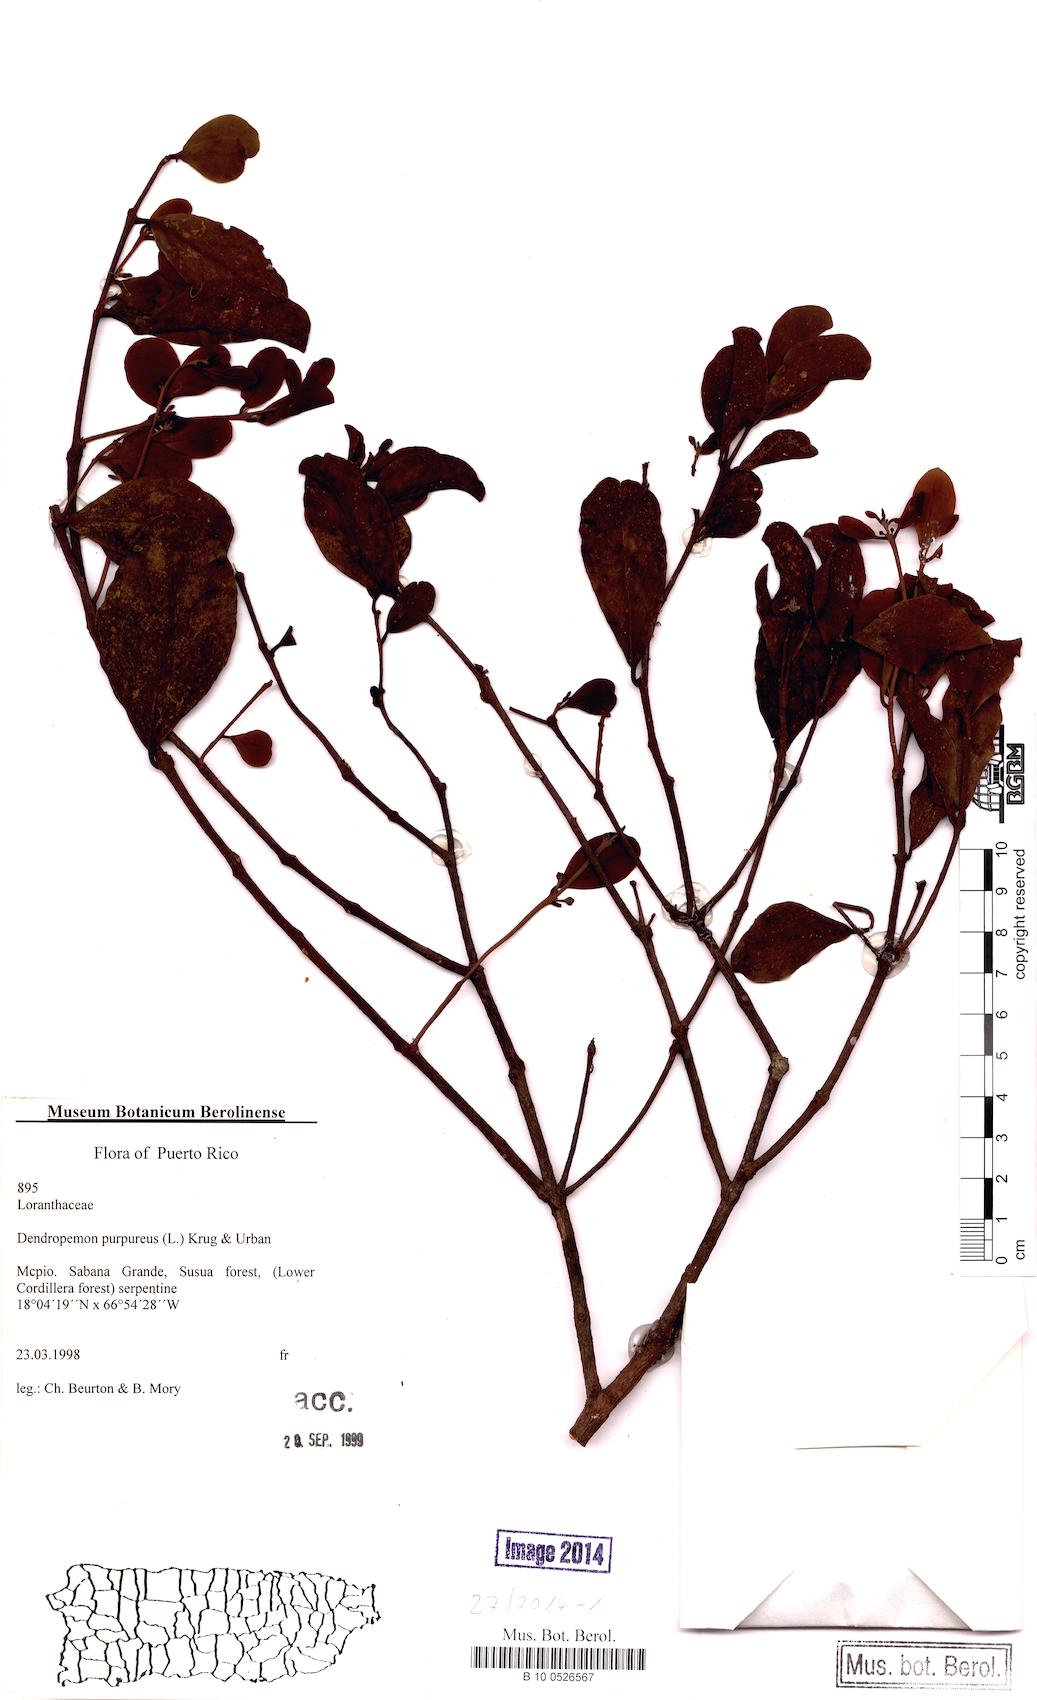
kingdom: Plantae
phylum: Tracheophyta
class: Magnoliopsida
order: Santalales
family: Loranthaceae
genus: Dendropemon
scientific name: Dendropemon purpureus
